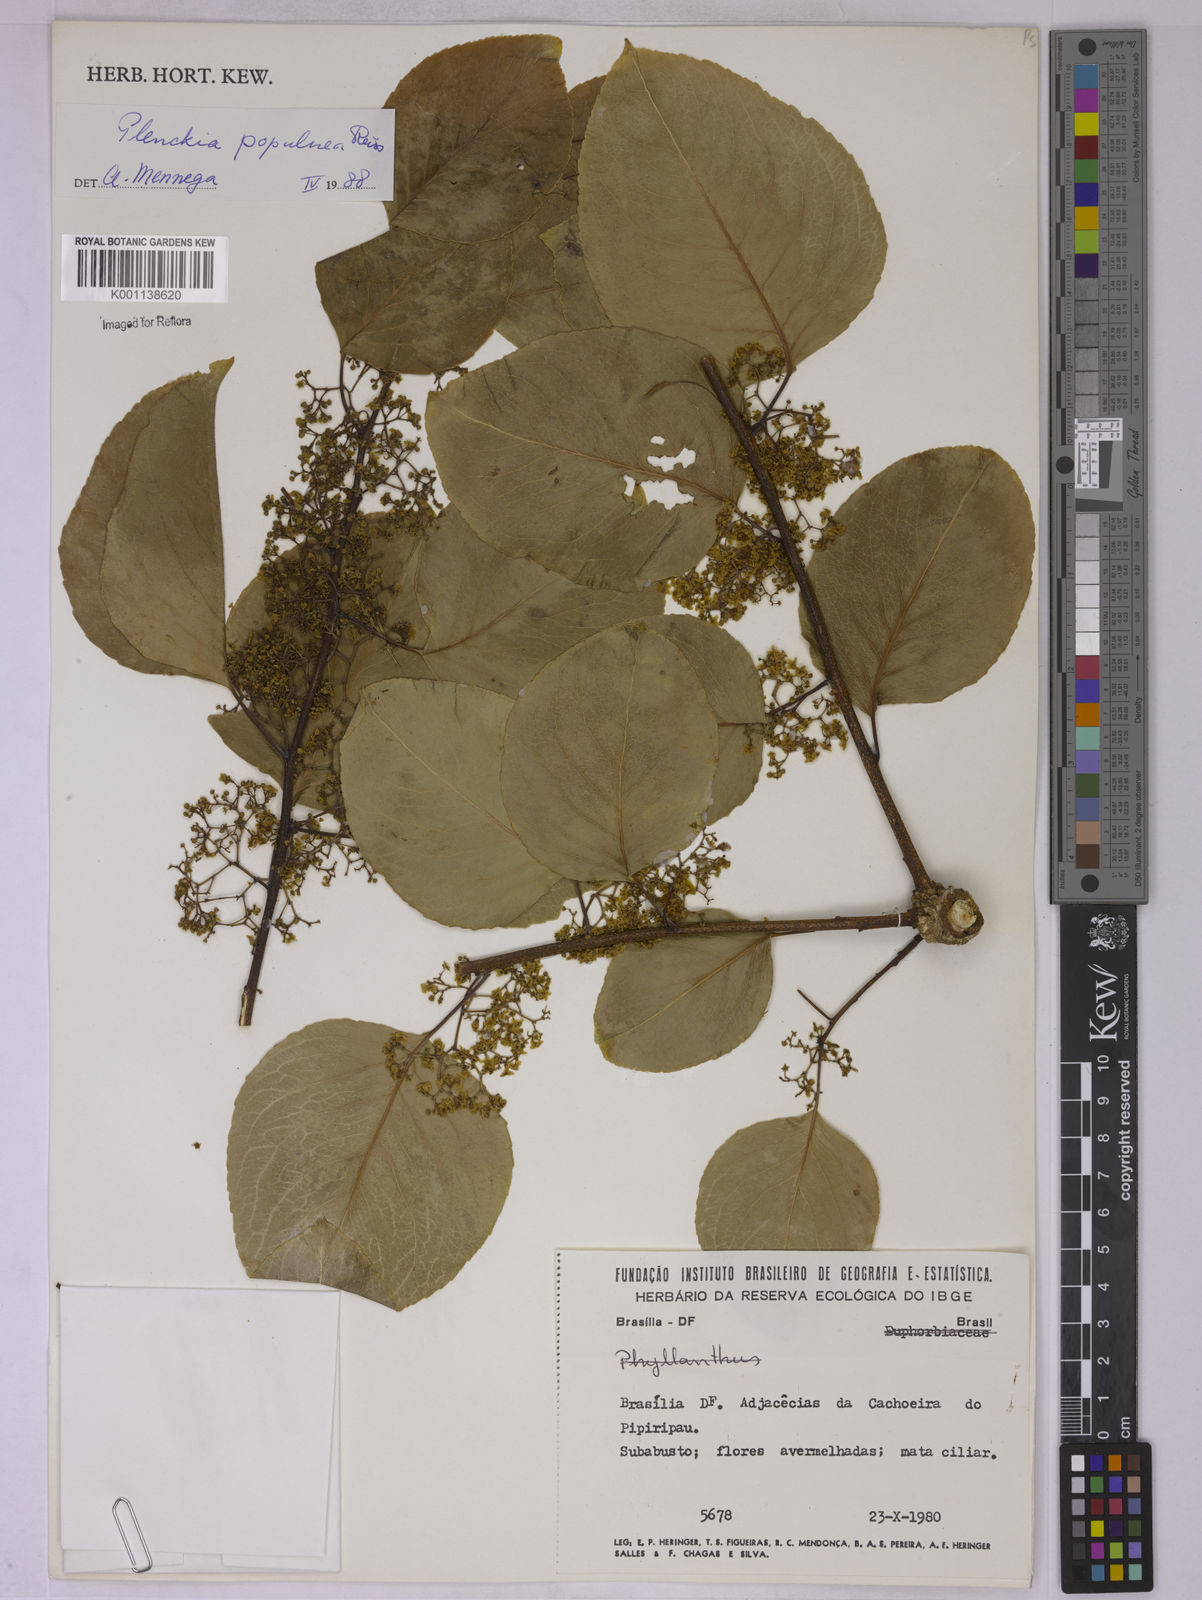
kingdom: Plantae
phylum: Tracheophyta
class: Magnoliopsida
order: Celastrales
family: Celastraceae
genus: Plenckia
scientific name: Plenckia populnea
